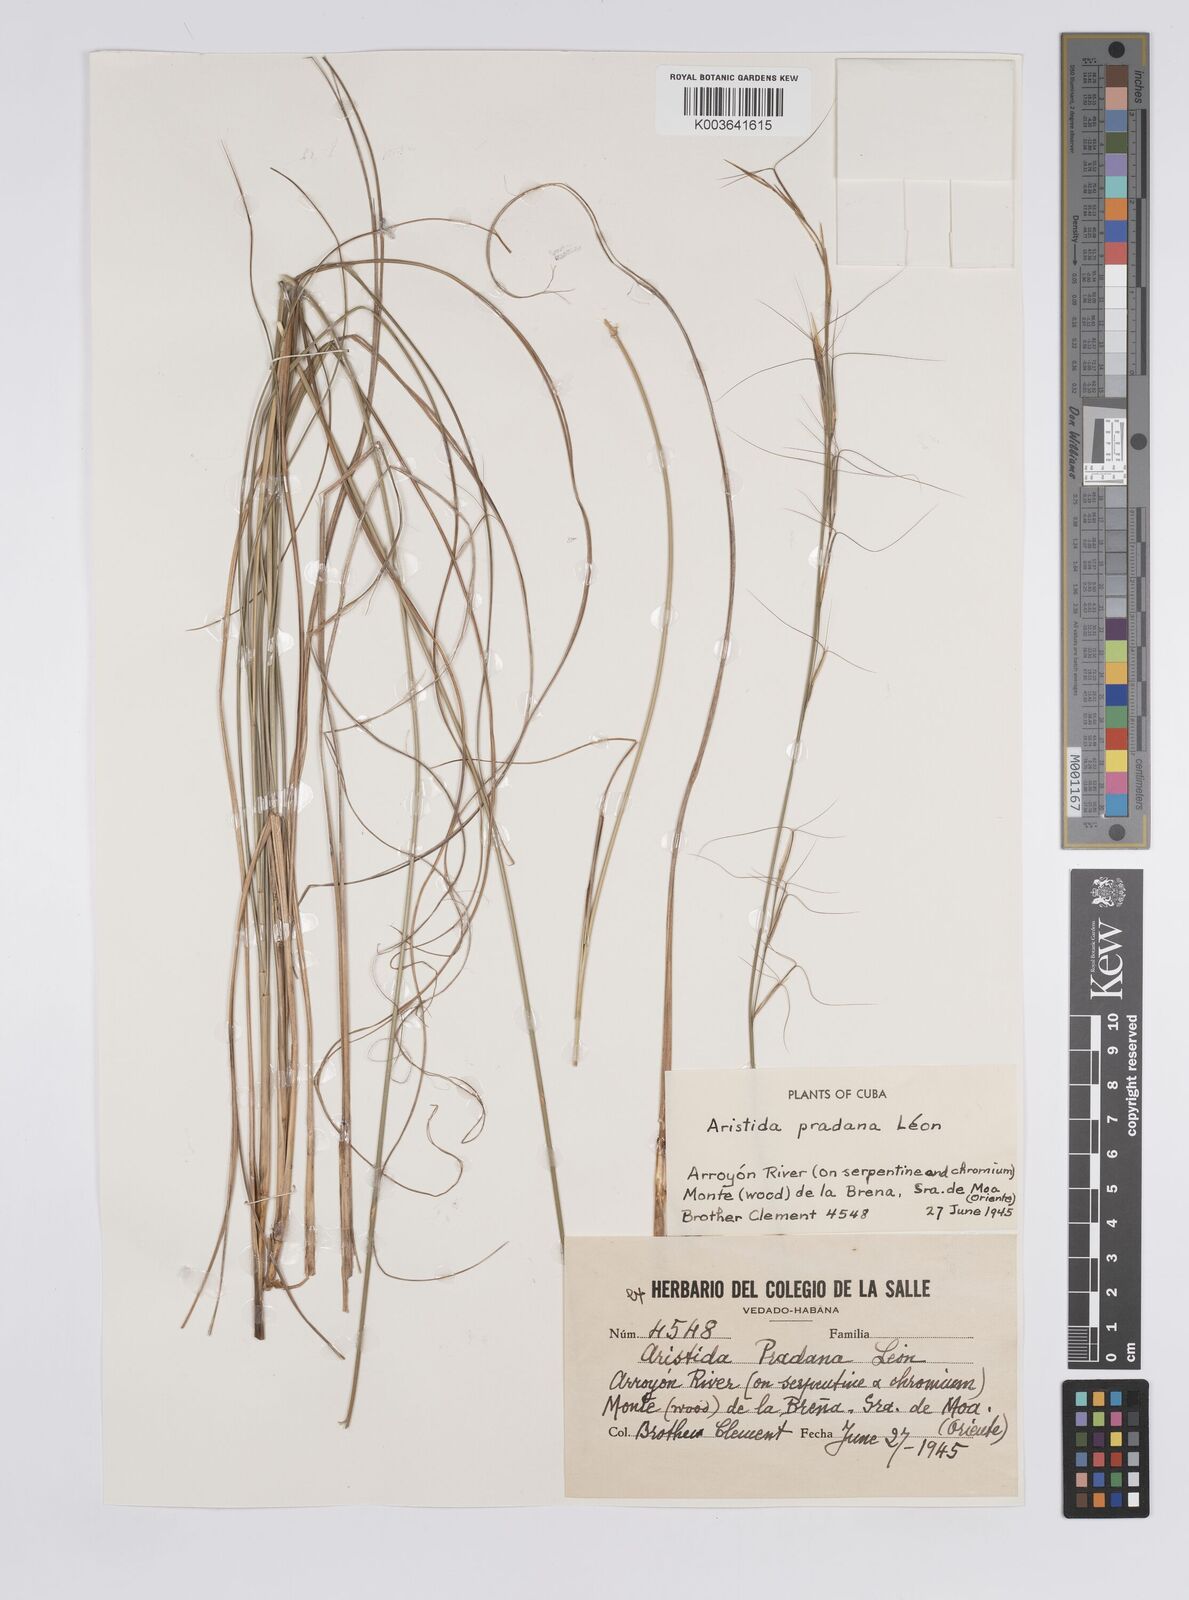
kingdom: Plantae
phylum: Tracheophyta
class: Liliopsida
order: Poales
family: Poaceae
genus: Aristida
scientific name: Aristida pradana
